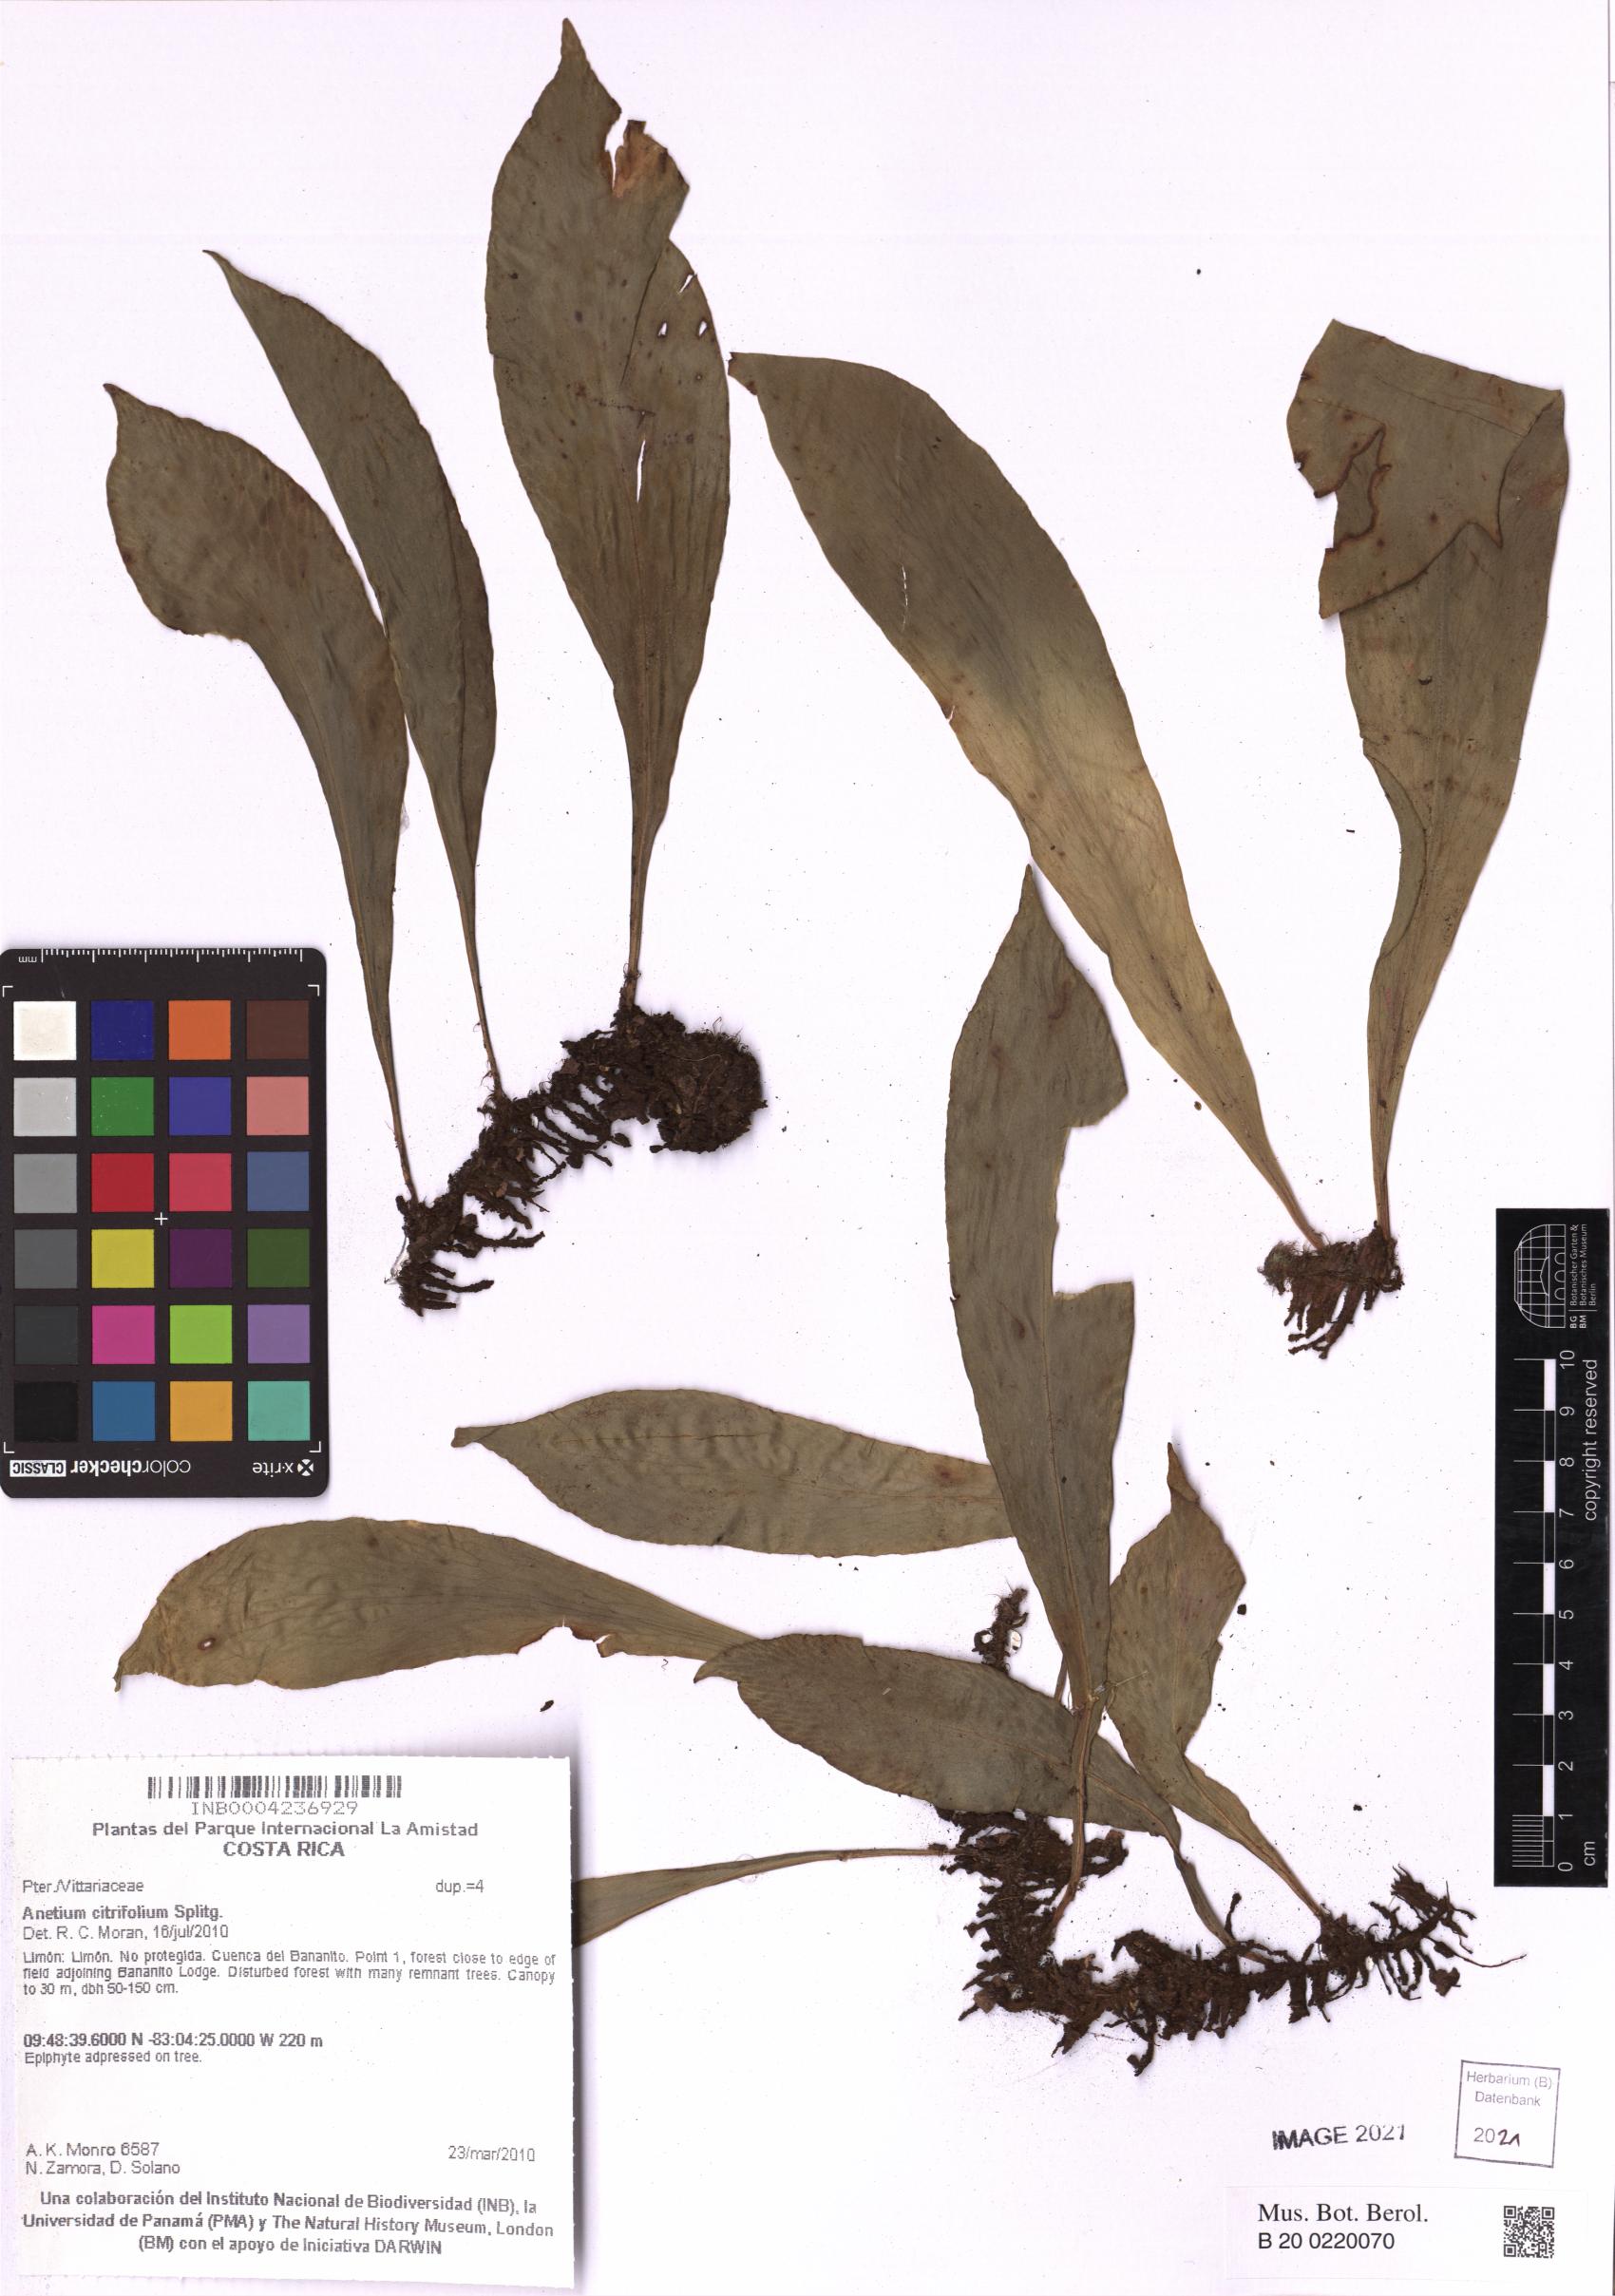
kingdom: Plantae
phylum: Tracheophyta
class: Polypodiopsida
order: Polypodiales
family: Pteridaceae
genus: Polytaenium
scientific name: Polytaenium citrifolium
